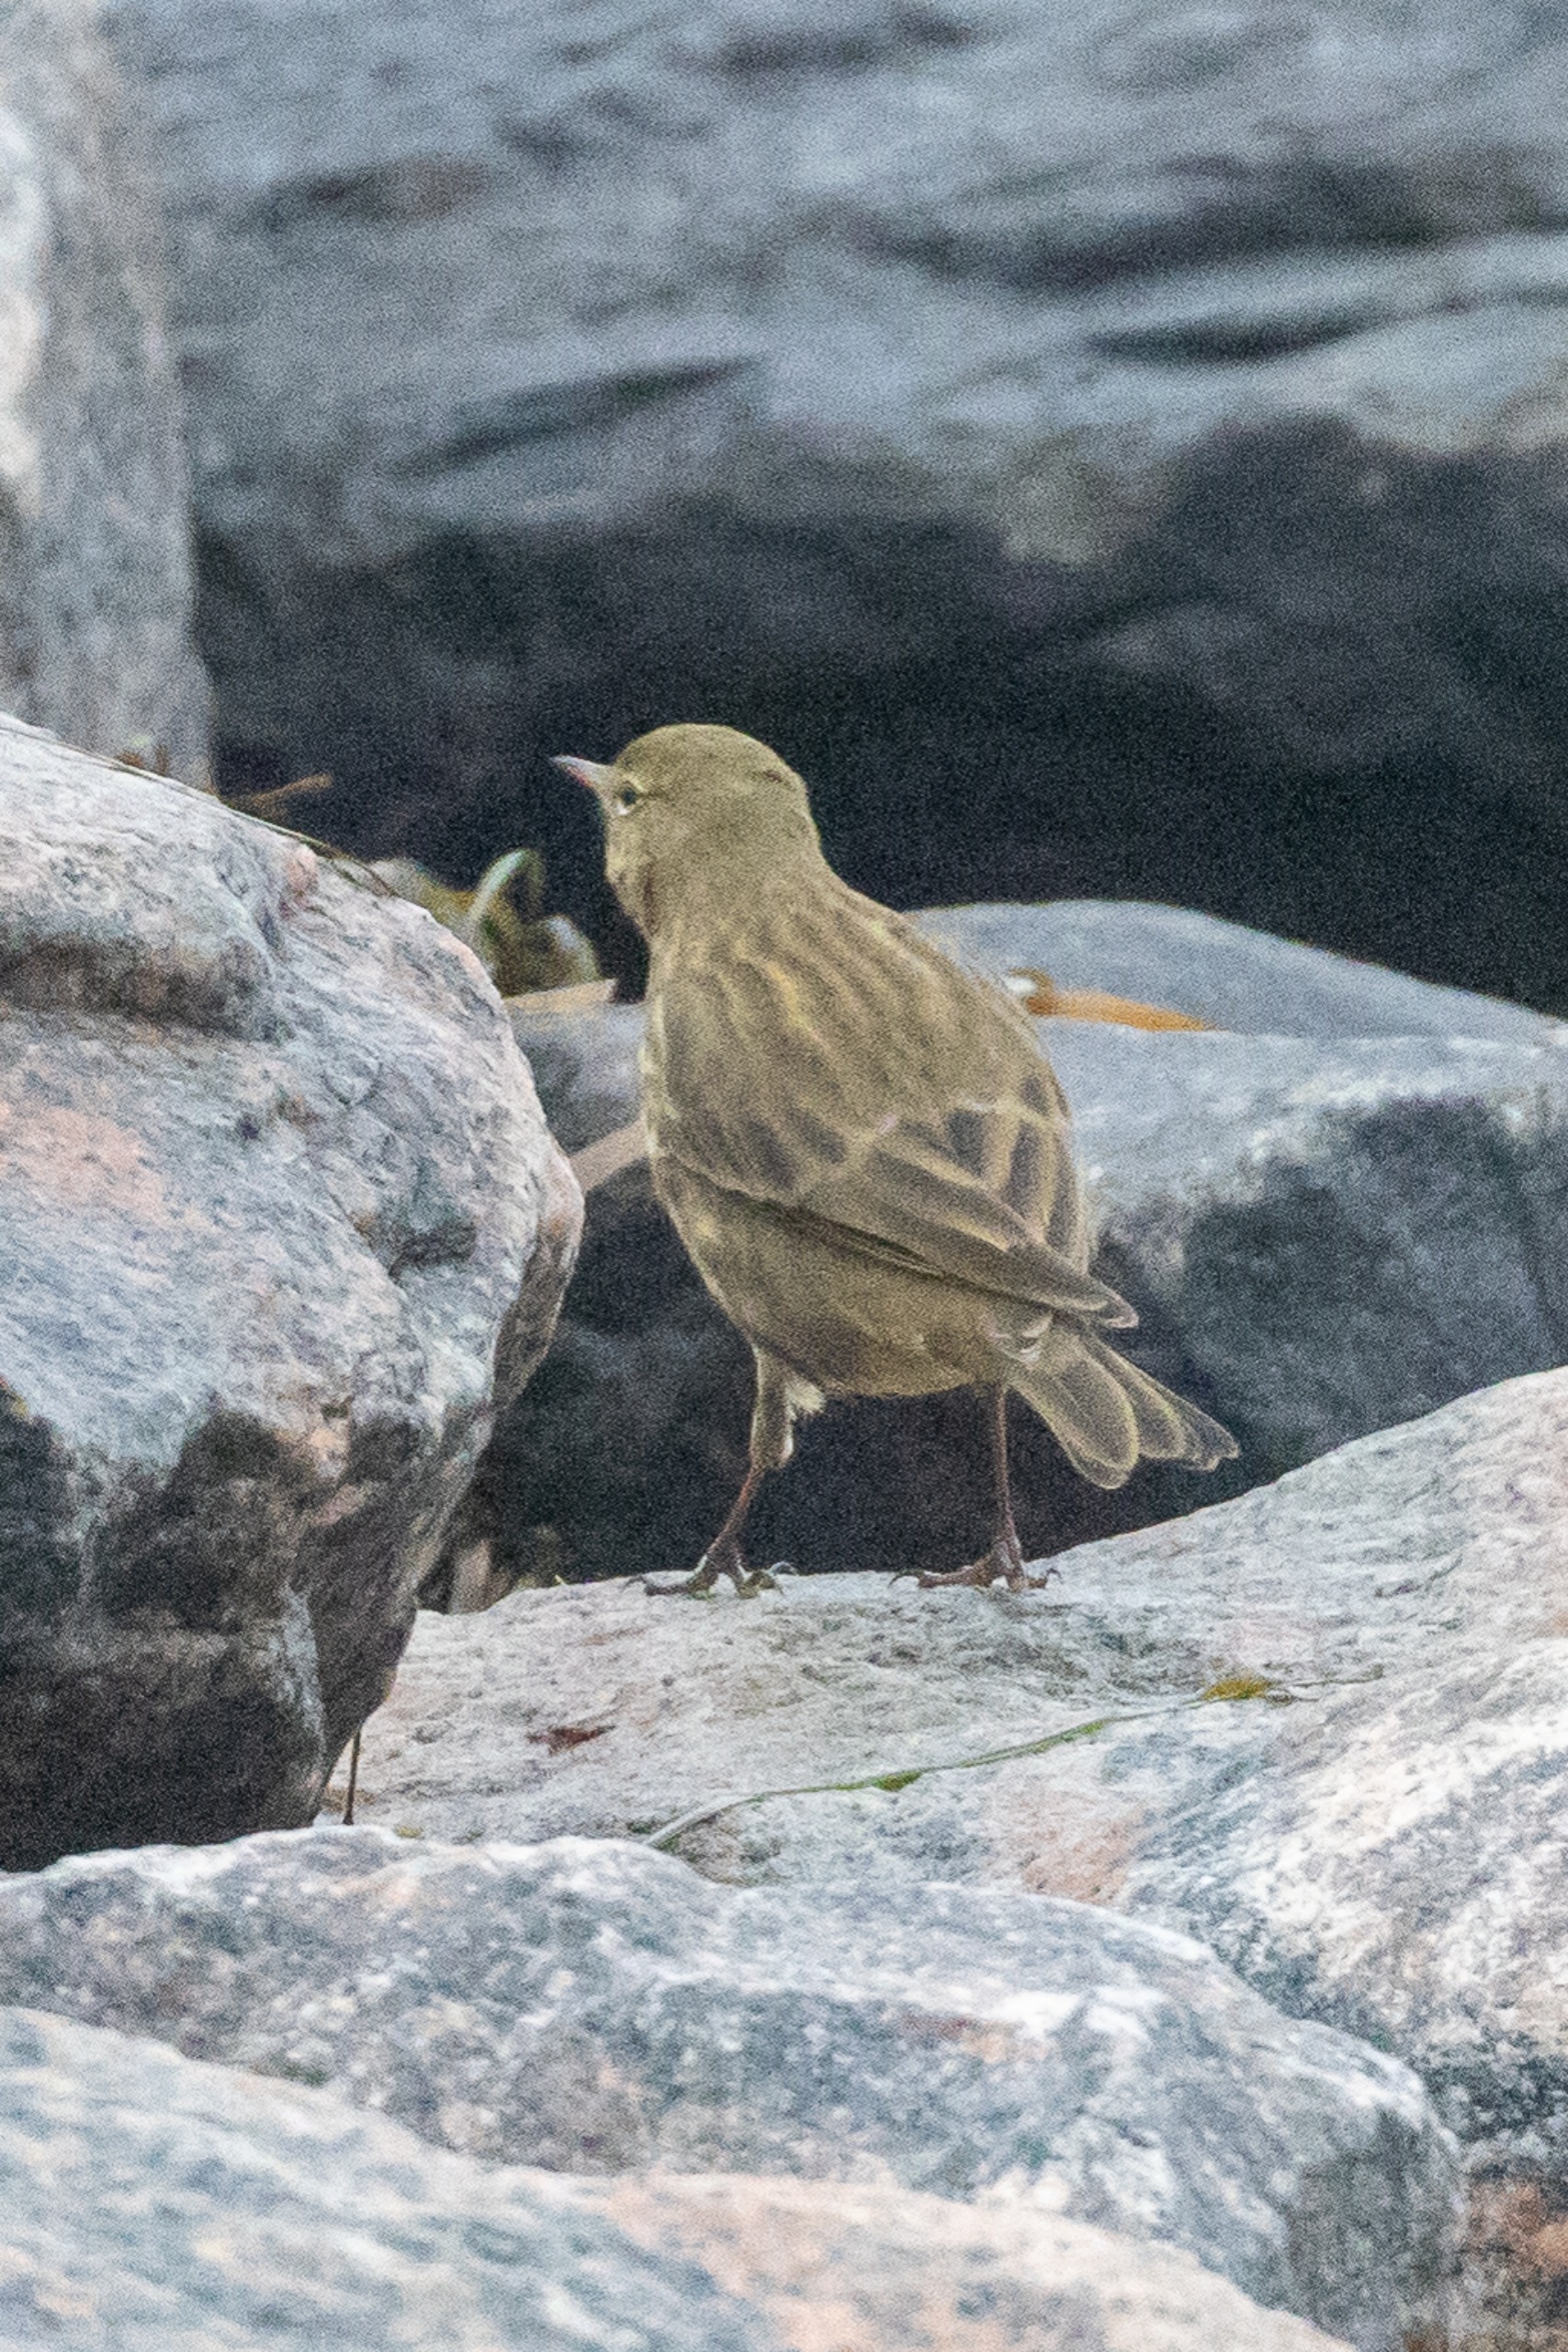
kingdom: Animalia
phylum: Chordata
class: Aves
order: Passeriformes
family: Motacillidae
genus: Anthus
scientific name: Anthus petrosus
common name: Skærpiber
